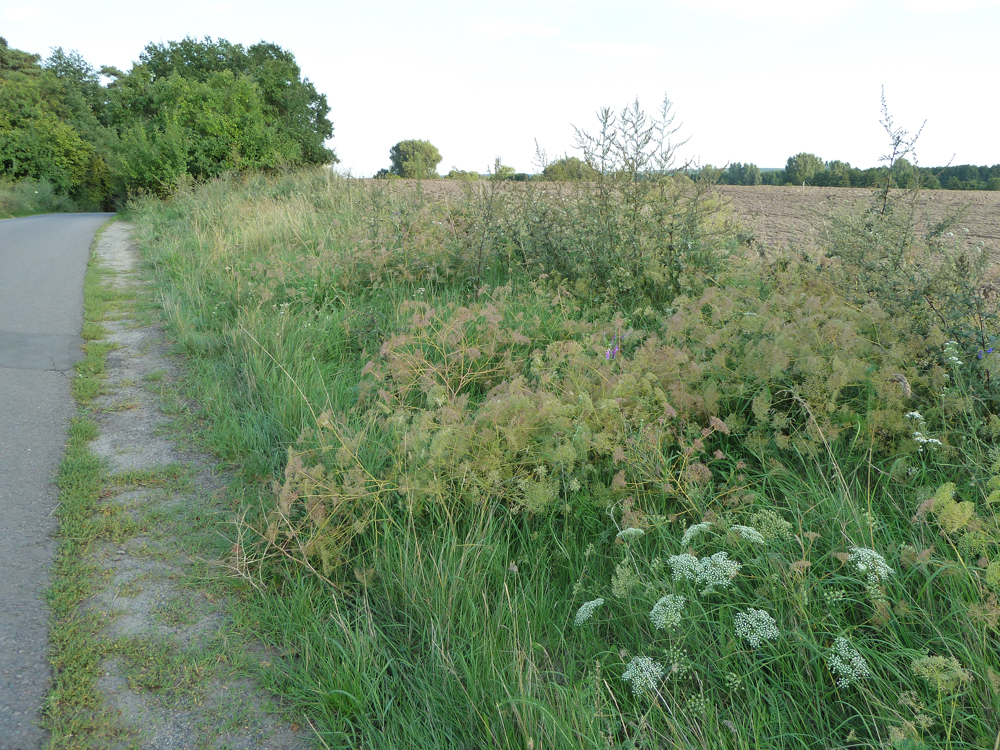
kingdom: Plantae
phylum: Tracheophyta
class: Magnoliopsida
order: Apiales
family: Apiaceae
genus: Falcaria
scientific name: Falcaria vulgaris
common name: Longleaf
